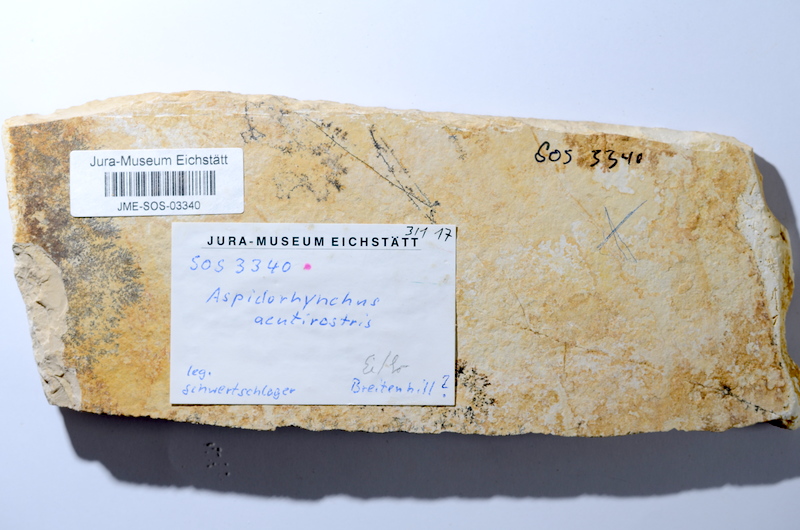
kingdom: Animalia
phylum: Chordata
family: Aspidorhynchidae
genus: Aspidorhynchus
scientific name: Aspidorhynchus acutirostris
